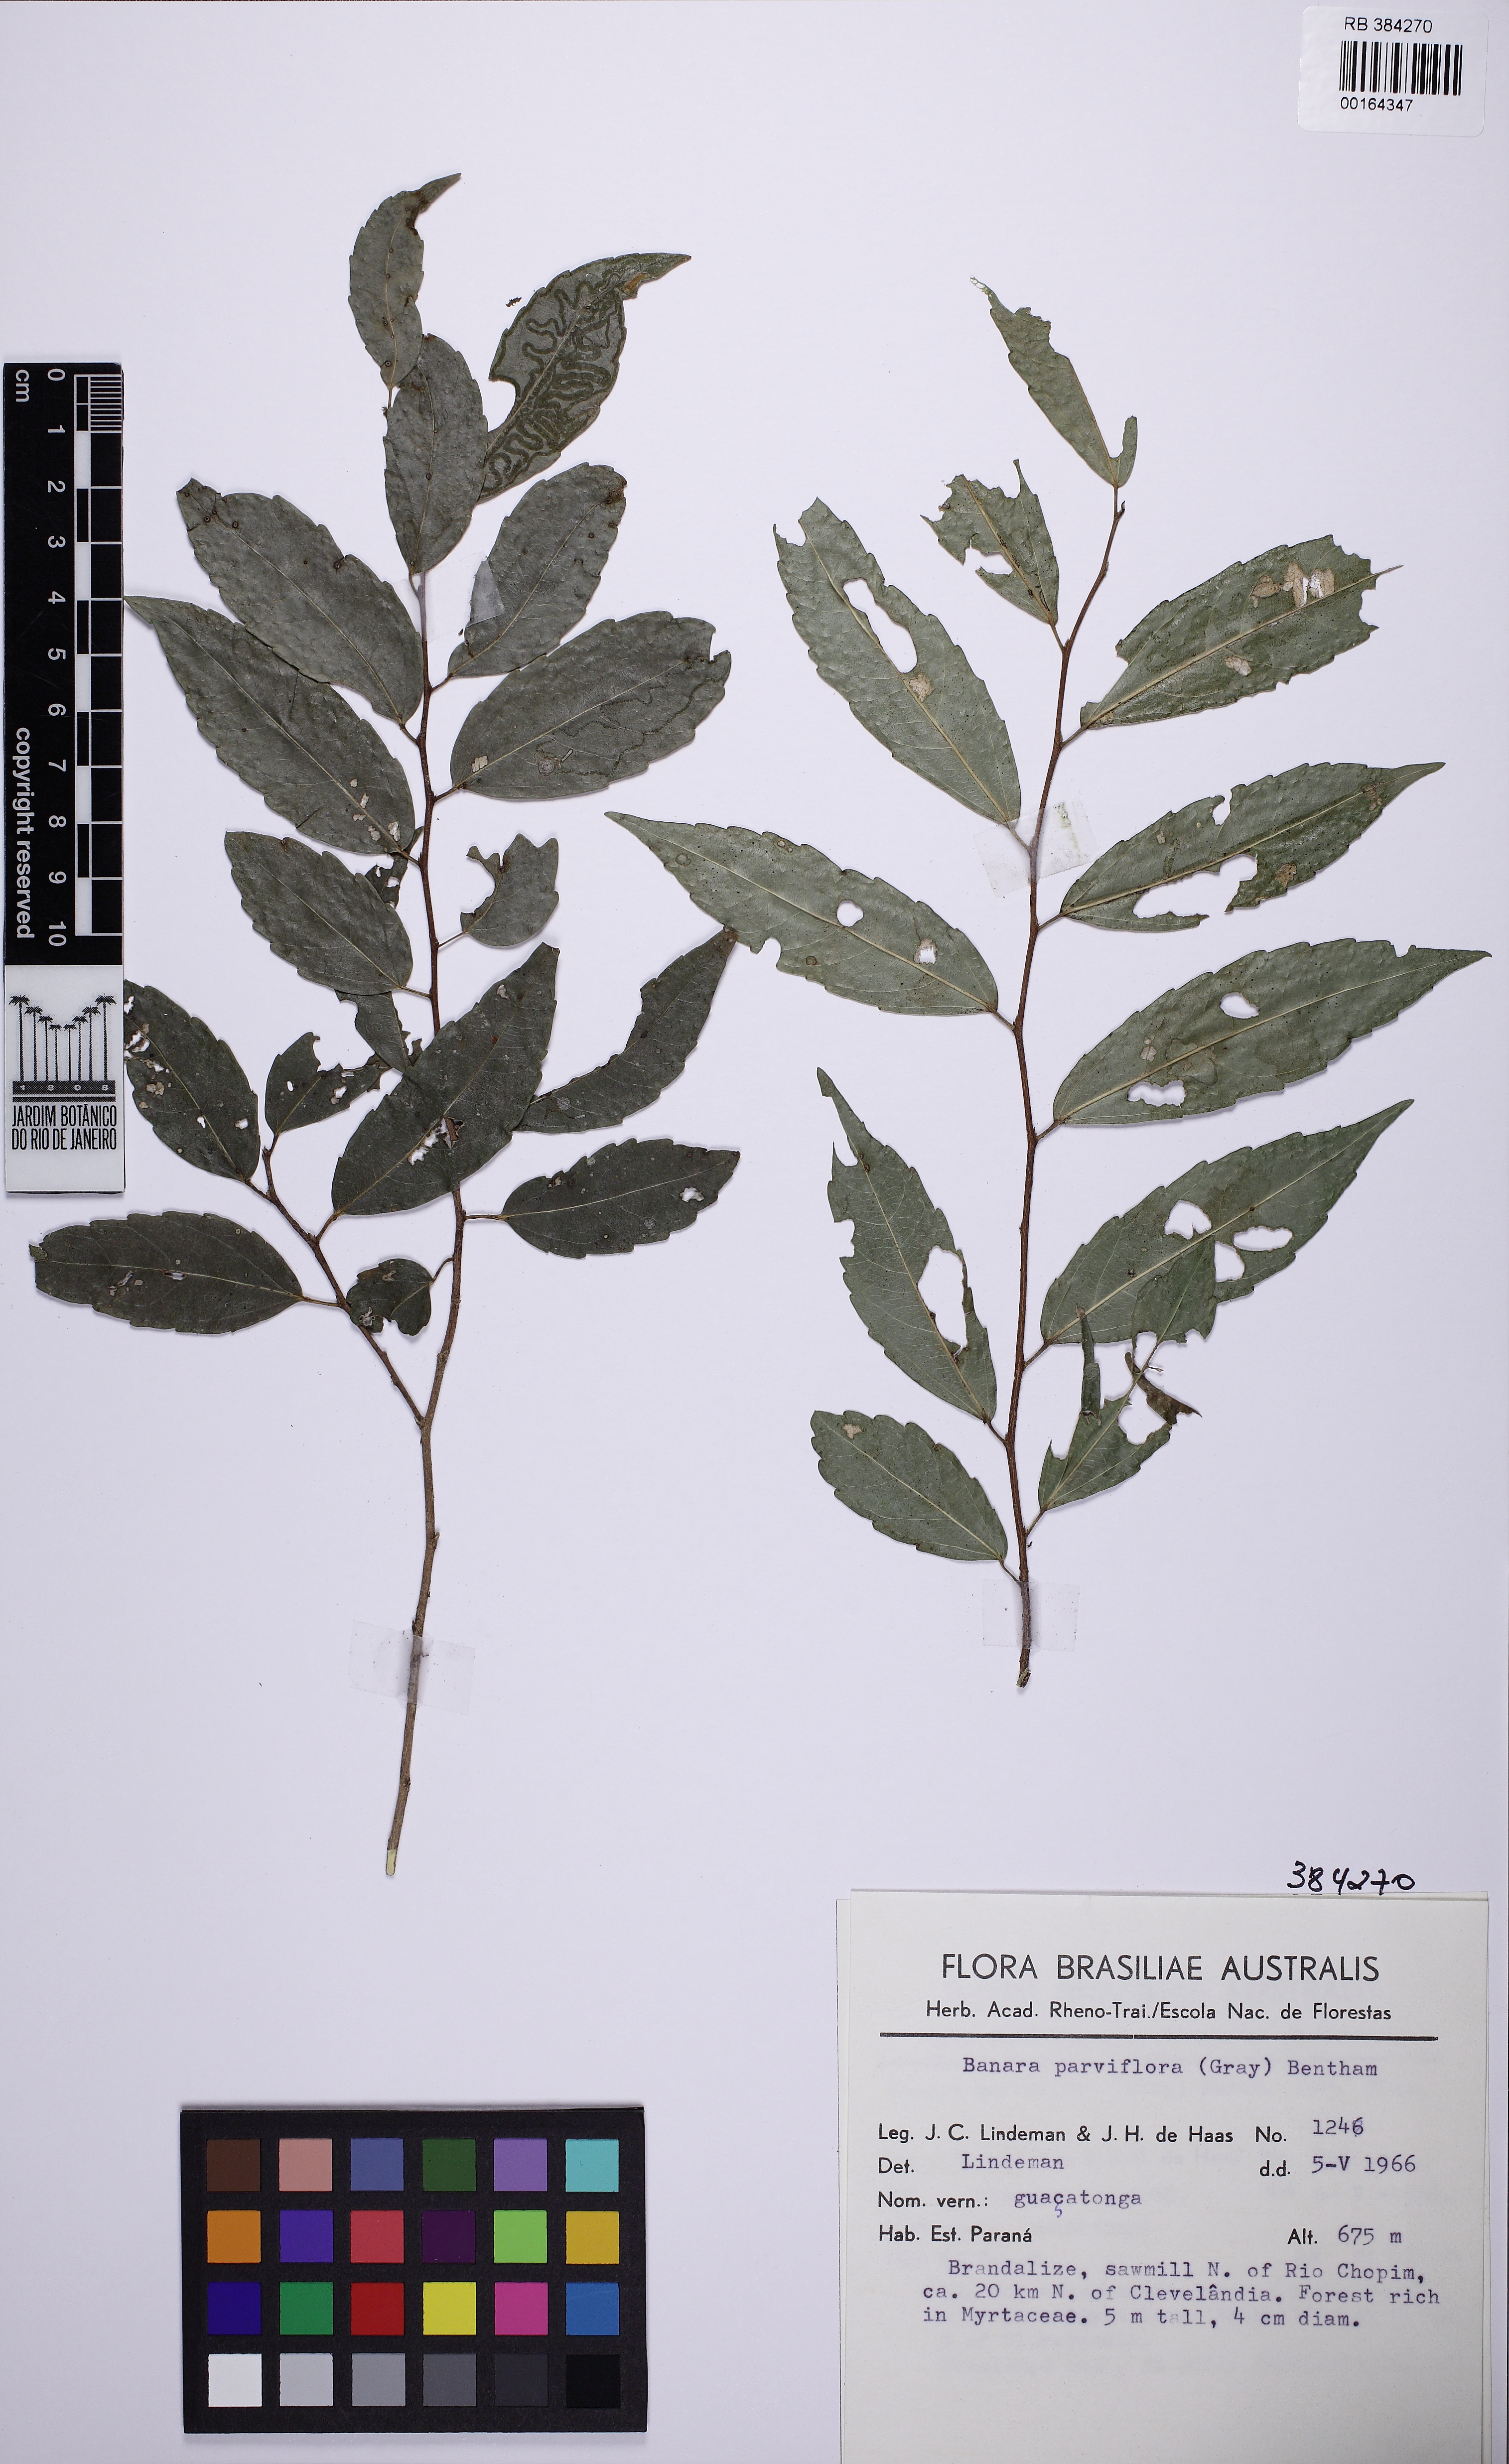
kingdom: Plantae
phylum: Tracheophyta
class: Magnoliopsida
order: Malpighiales
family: Salicaceae
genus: Banara
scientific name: Banara parviflora
